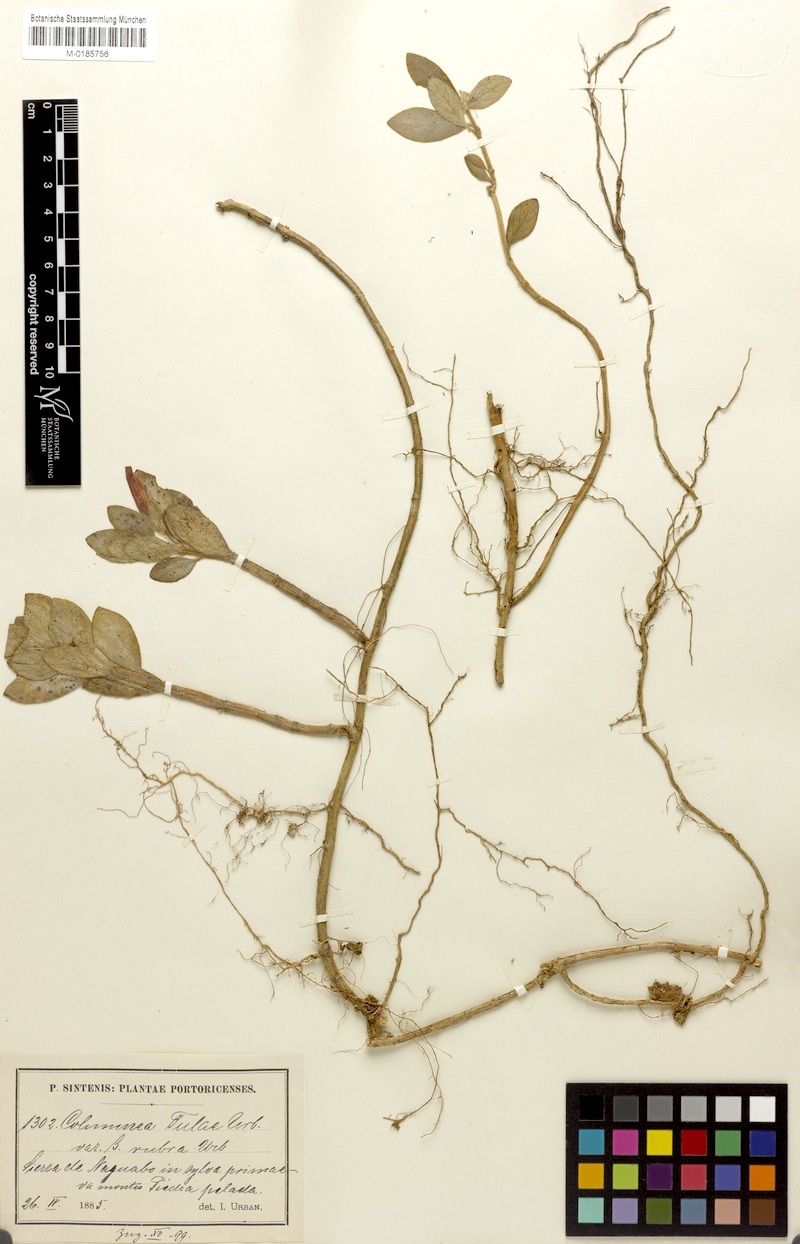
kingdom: Plantae
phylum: Tracheophyta
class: Magnoliopsida
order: Lamiales
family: Gesneriaceae
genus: Columnea
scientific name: Columnea scandens
